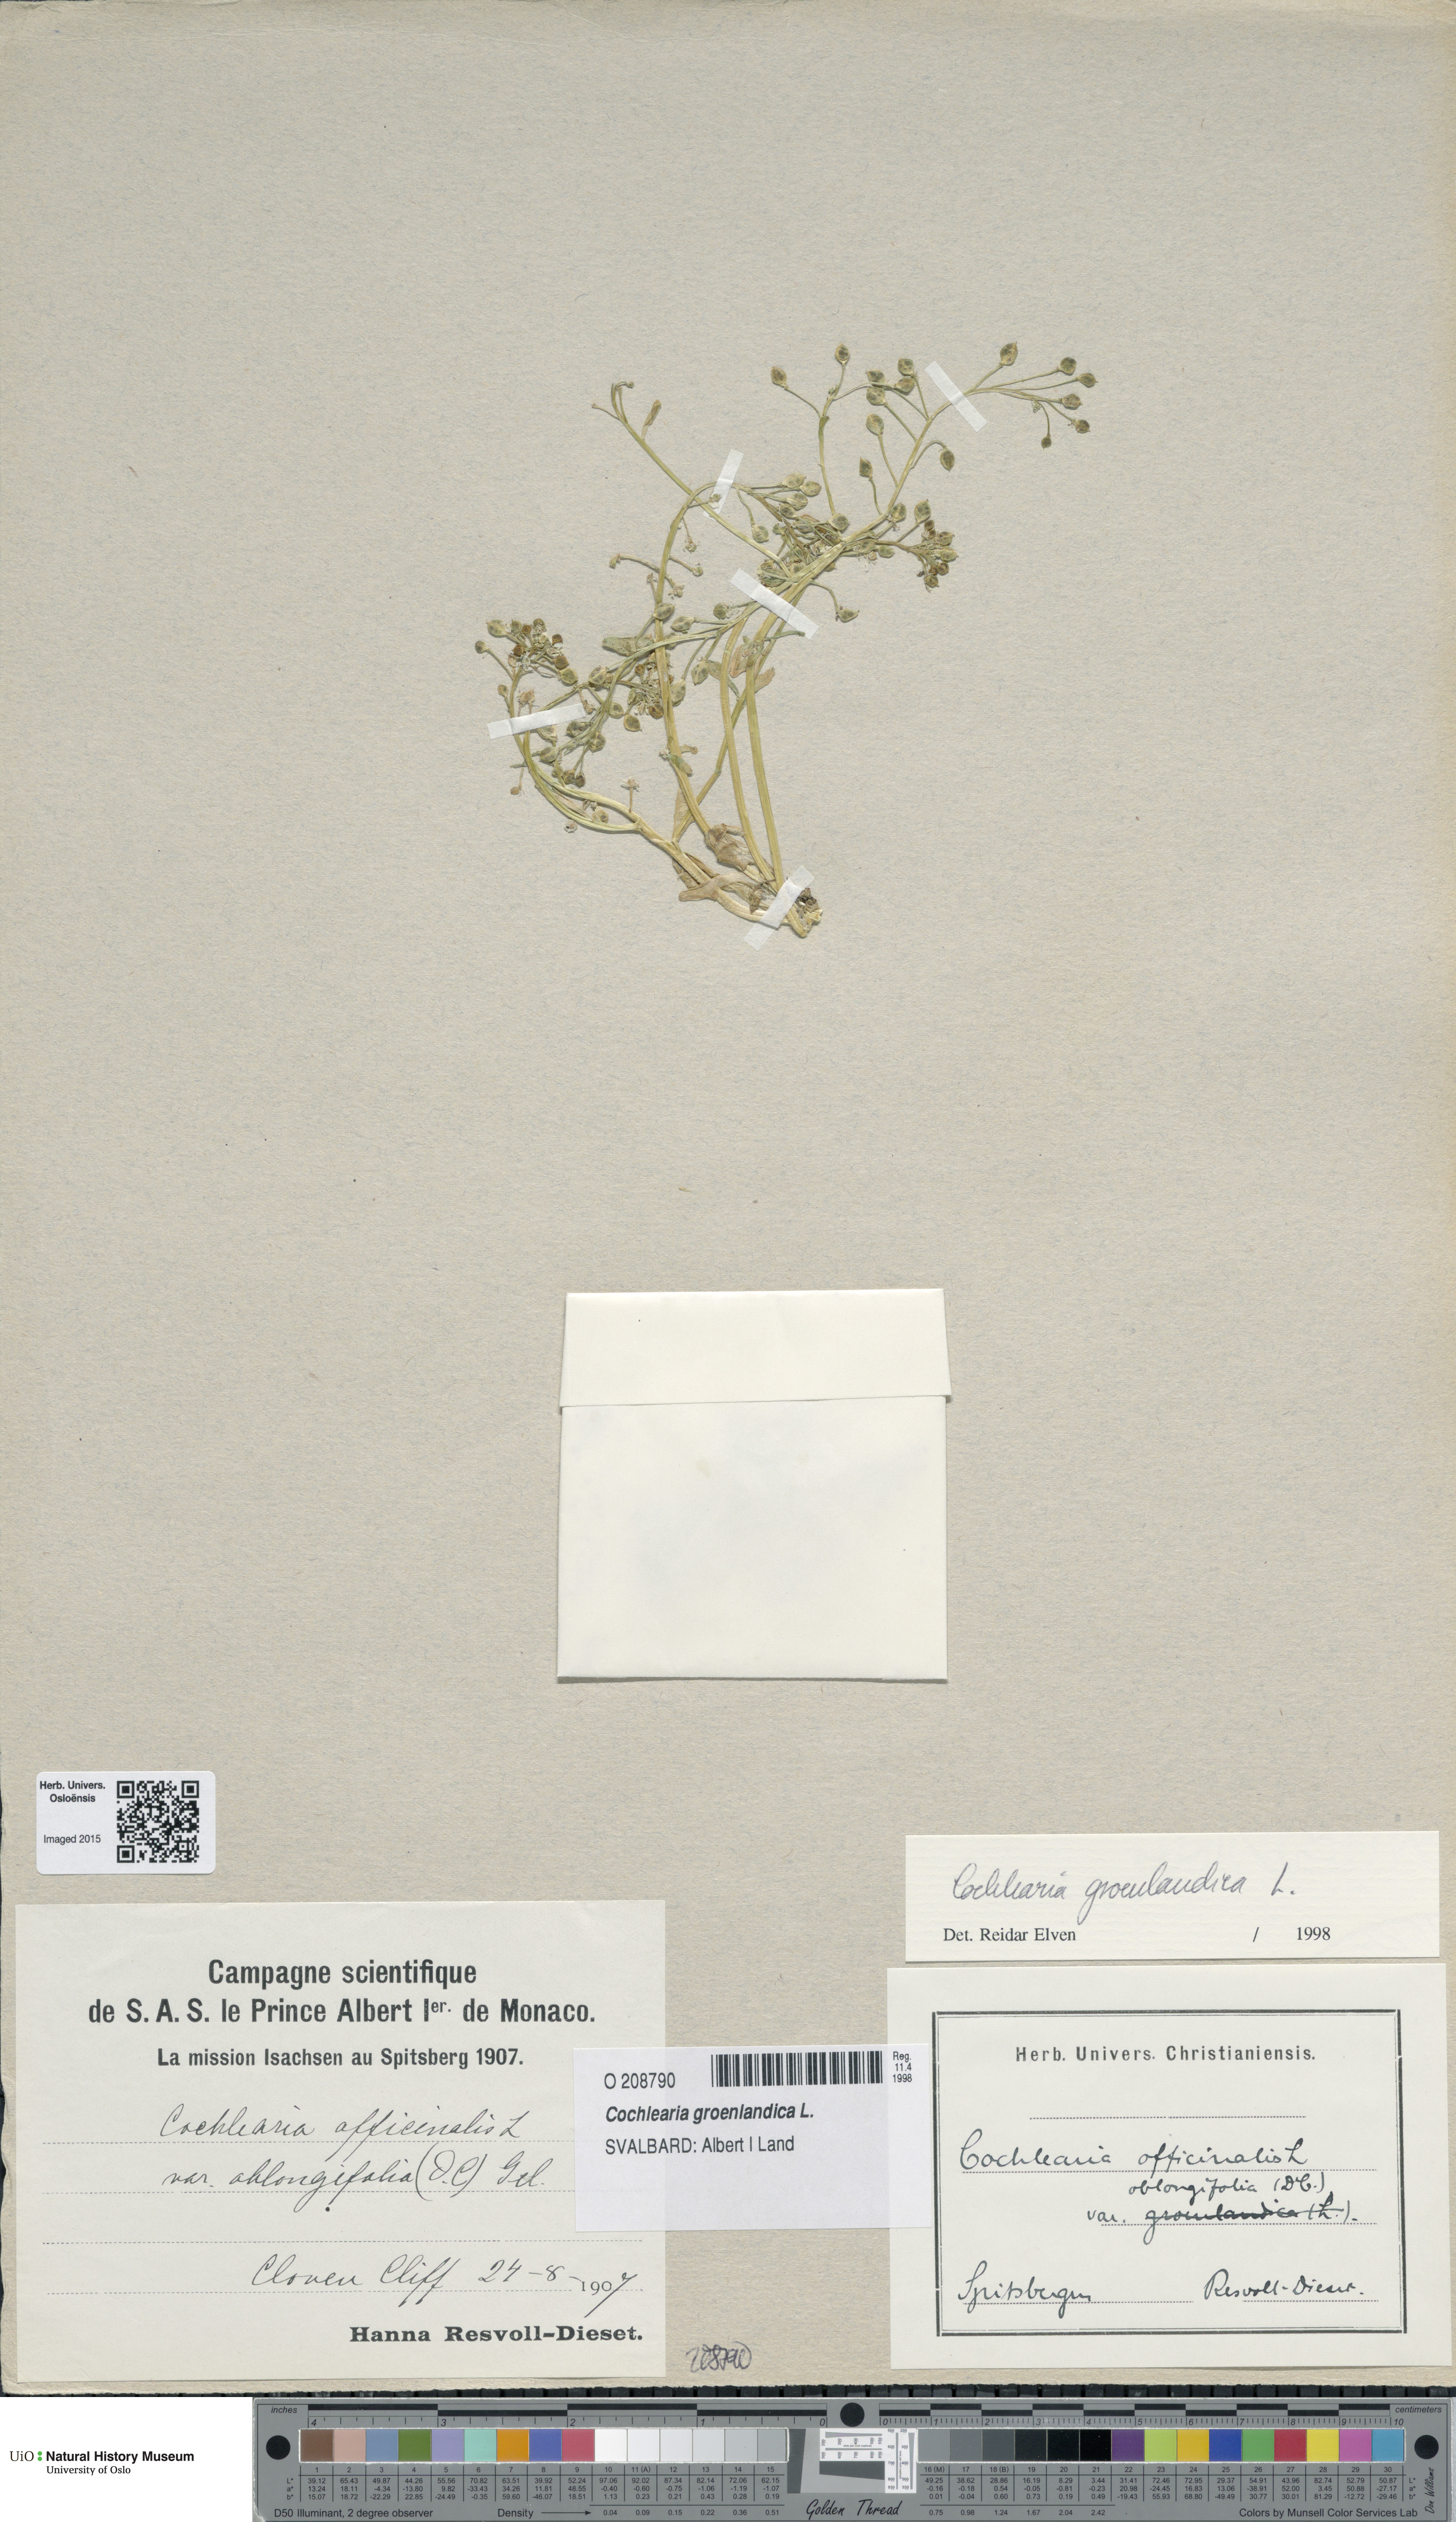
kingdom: Plantae
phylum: Tracheophyta
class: Magnoliopsida
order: Brassicales
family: Brassicaceae
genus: Cochlearia
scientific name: Cochlearia groenlandica
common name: Danish scurvygrass
